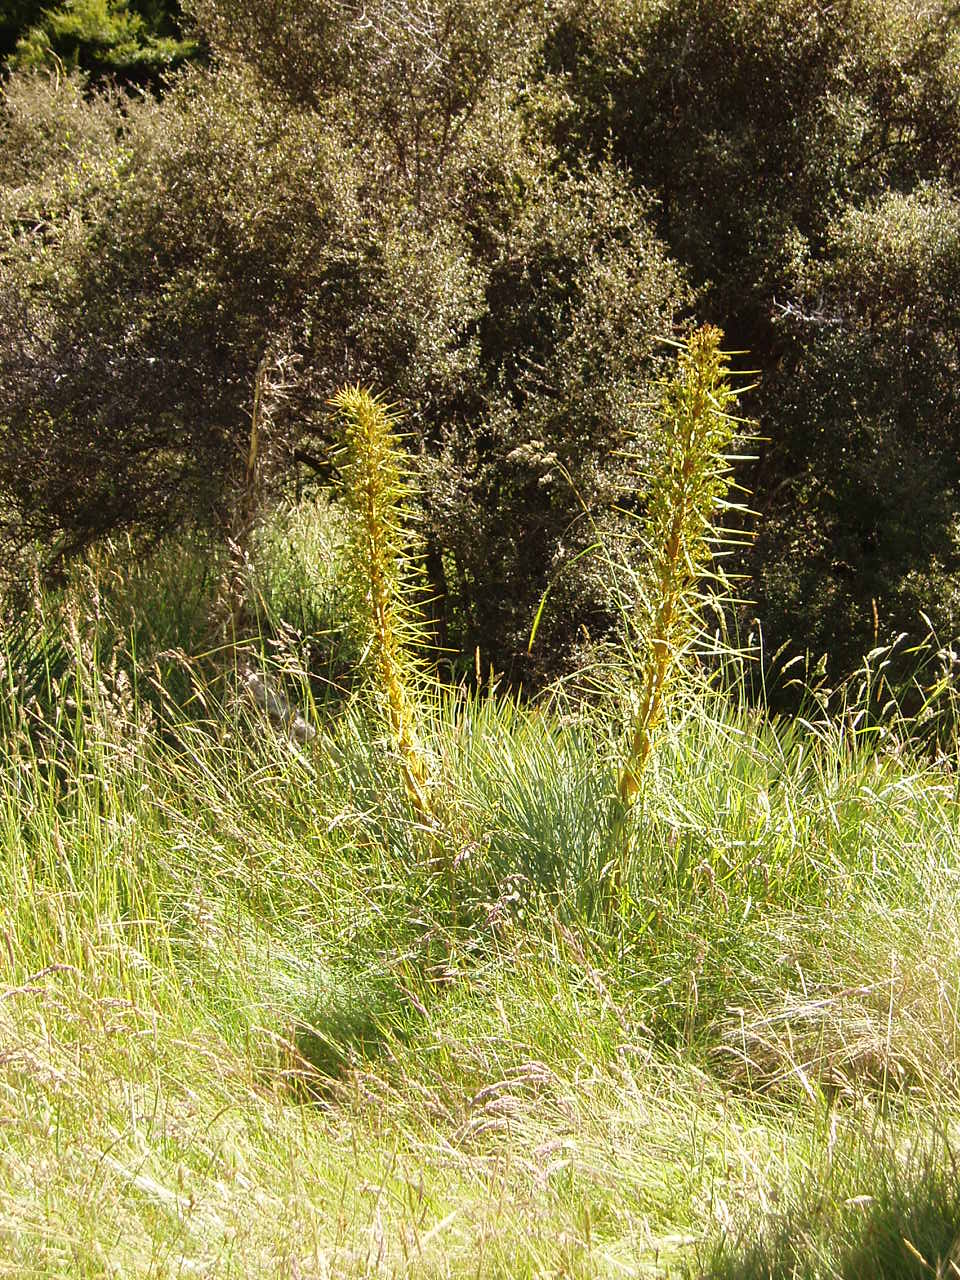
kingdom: Plantae
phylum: Tracheophyta
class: Magnoliopsida
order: Apiales
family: Apiaceae
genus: Aciphylla
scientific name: Aciphylla glaucescens
